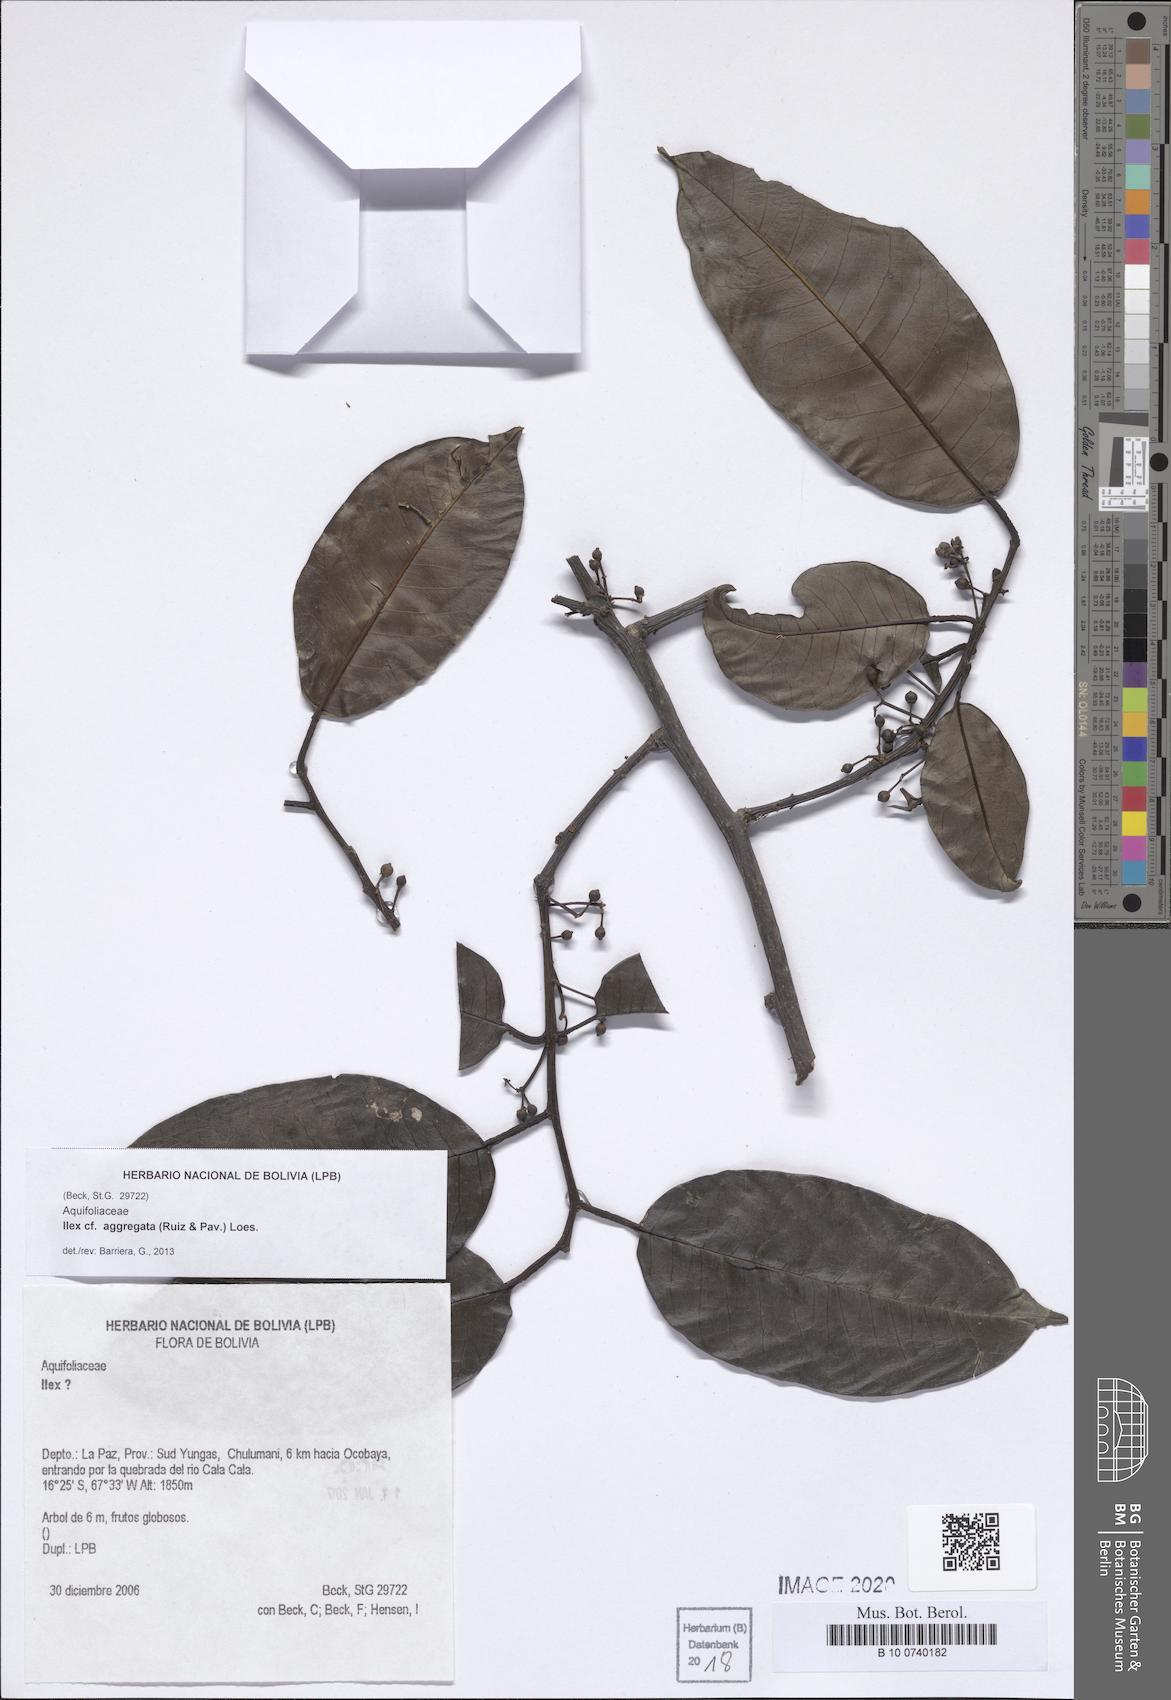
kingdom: Plantae
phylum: Tracheophyta
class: Magnoliopsida
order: Aquifoliales
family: Aquifoliaceae
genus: Ilex
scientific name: Ilex aggregata
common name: Clustered holly
